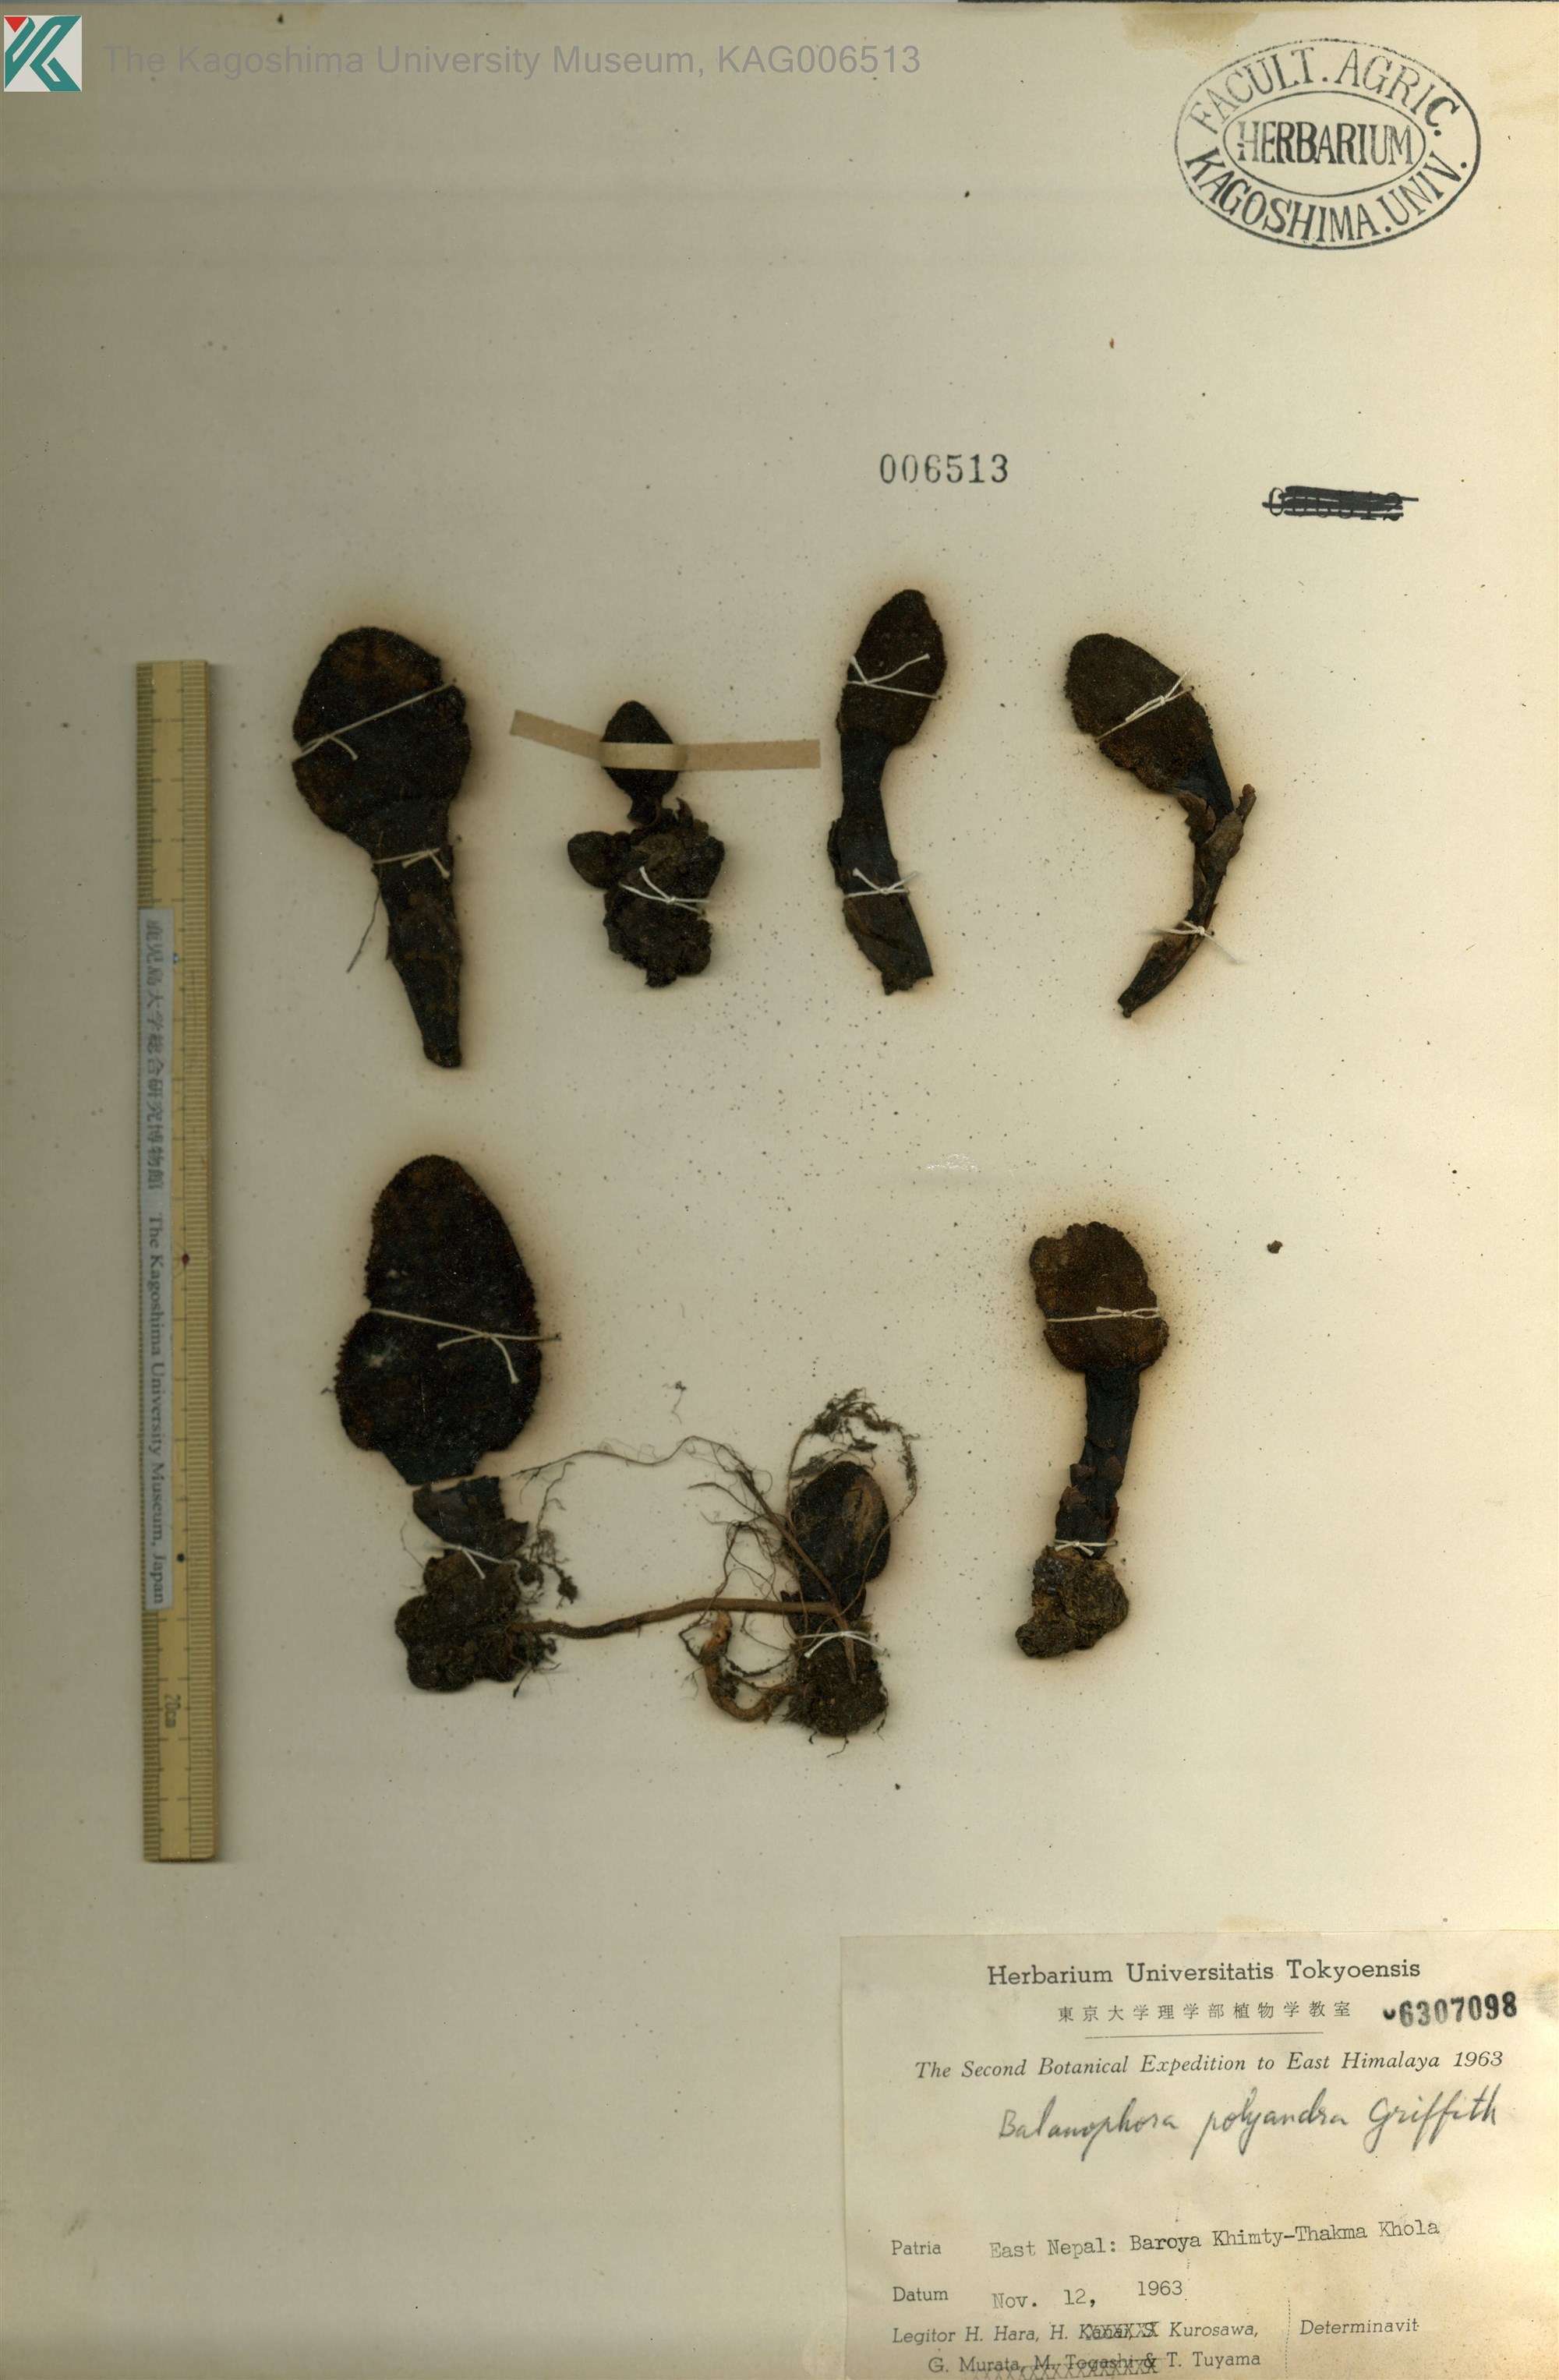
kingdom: Plantae
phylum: Tracheophyta
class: Magnoliopsida
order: Santalales
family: Balanophoraceae
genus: Balanophora
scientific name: Balanophora polyandra
